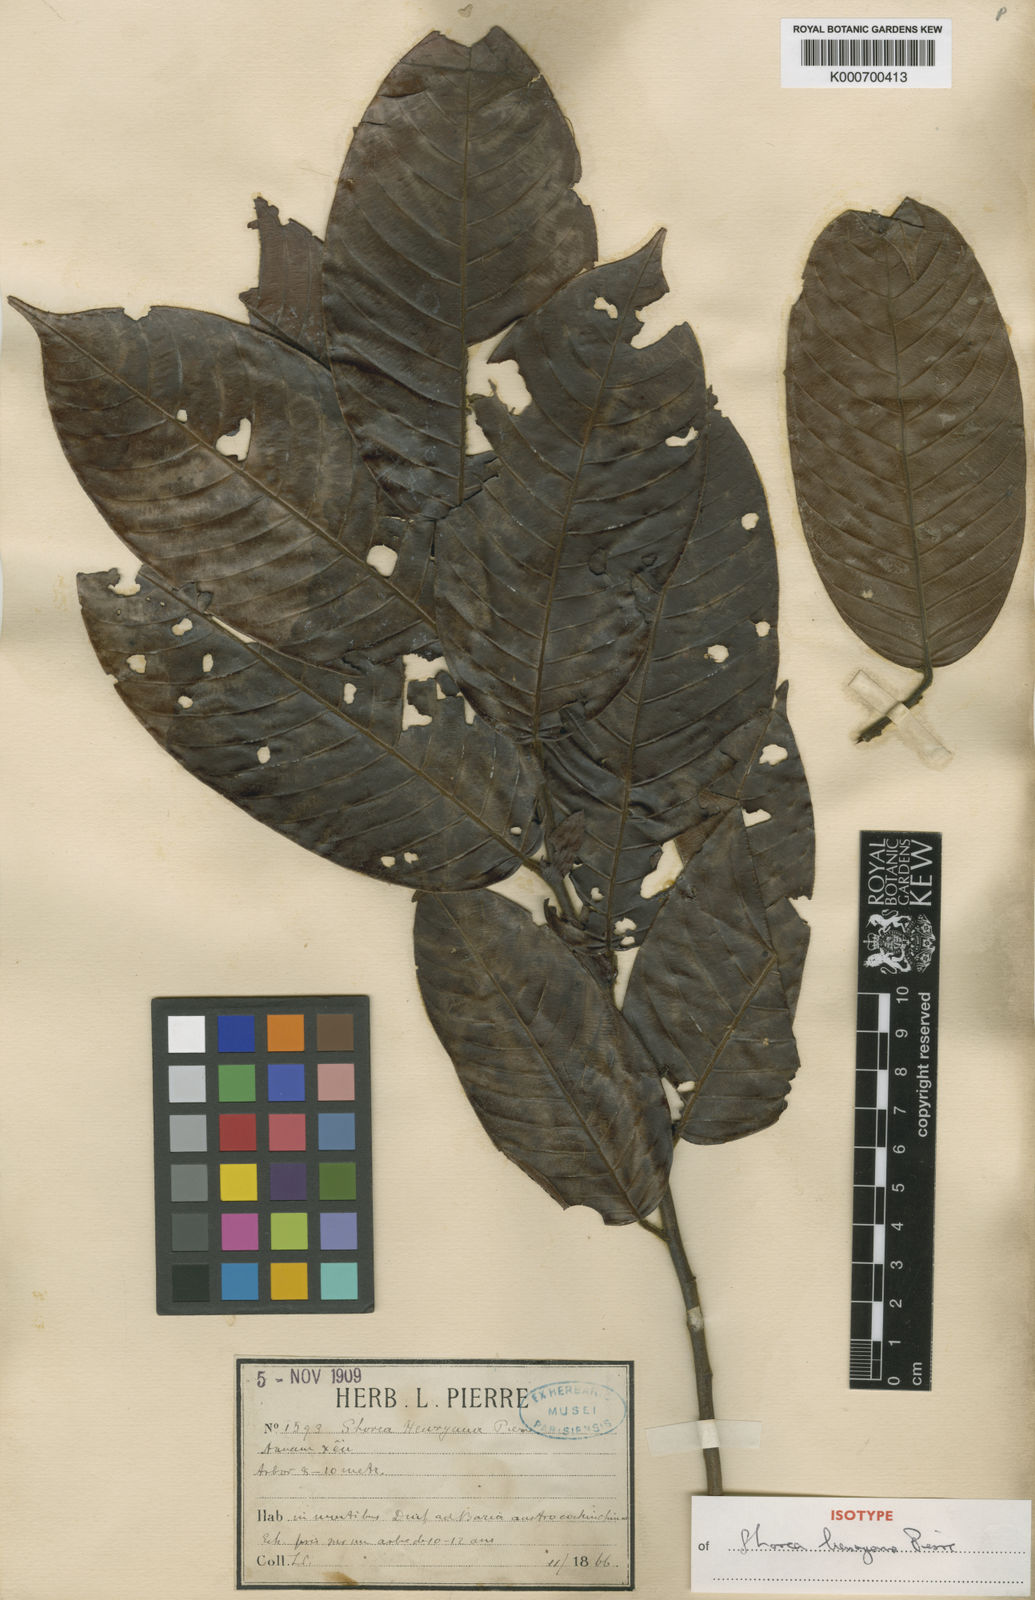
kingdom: Plantae
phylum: Tracheophyta
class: Magnoliopsida
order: Malvales
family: Dipterocarpaceae
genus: Shorea
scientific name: Shorea
